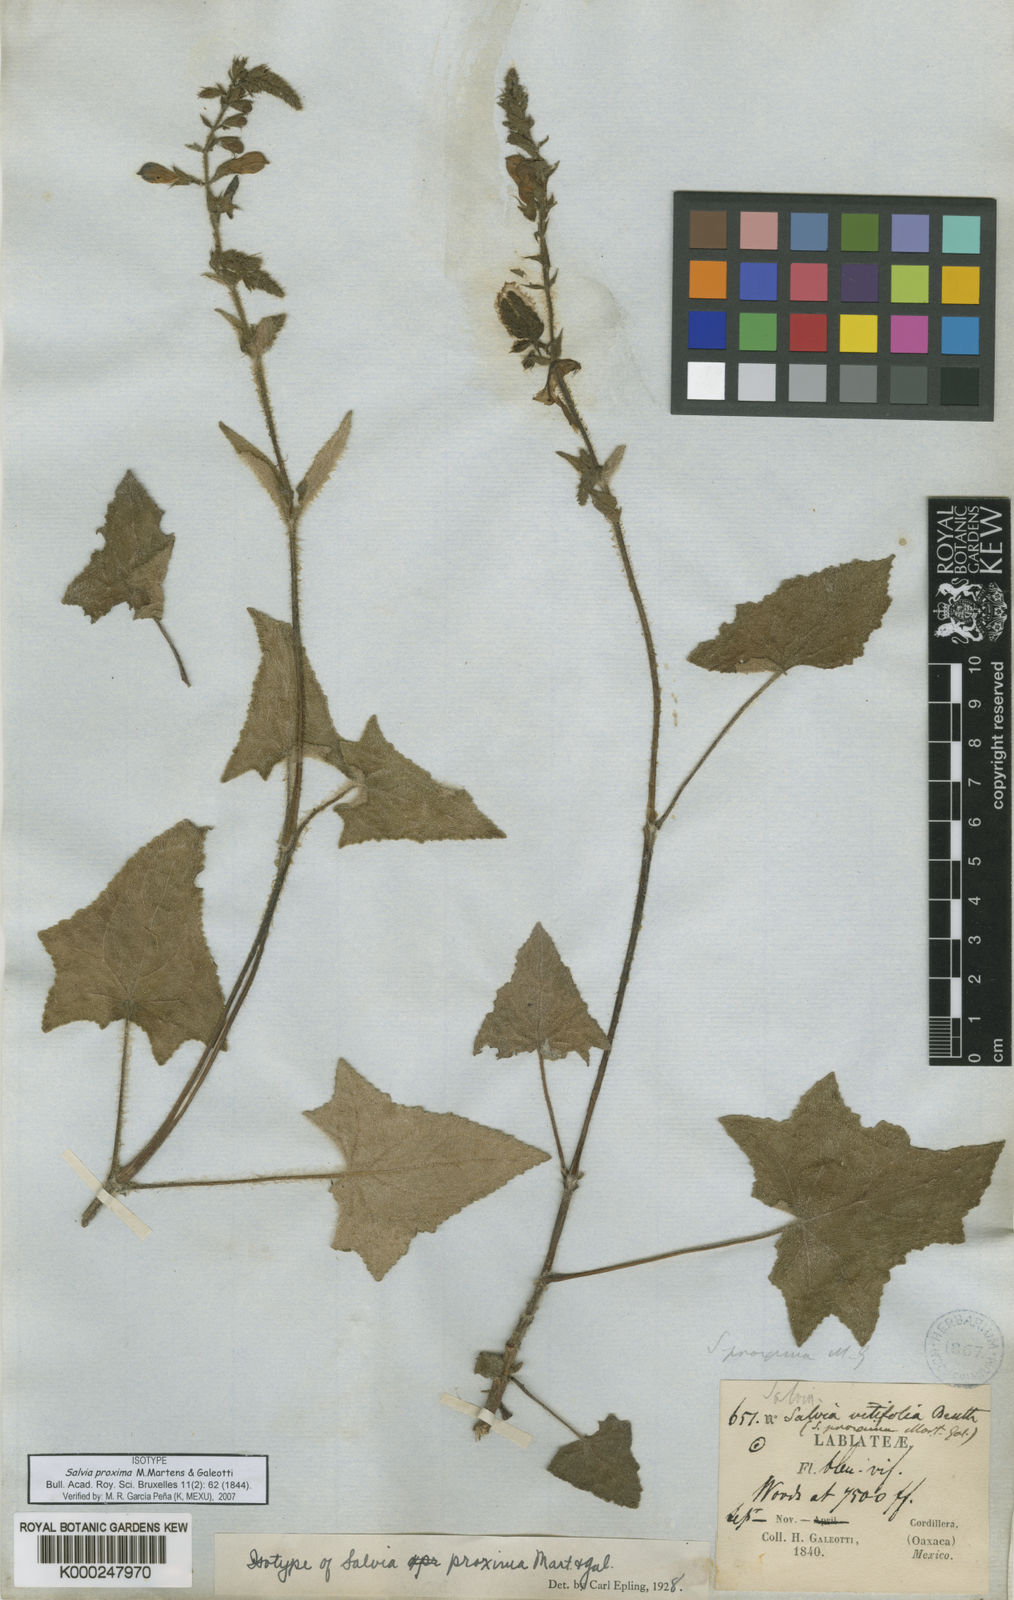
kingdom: Plantae
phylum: Tracheophyta
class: Magnoliopsida
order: Lamiales
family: Lamiaceae
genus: Salvia
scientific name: Salvia vitifolia
